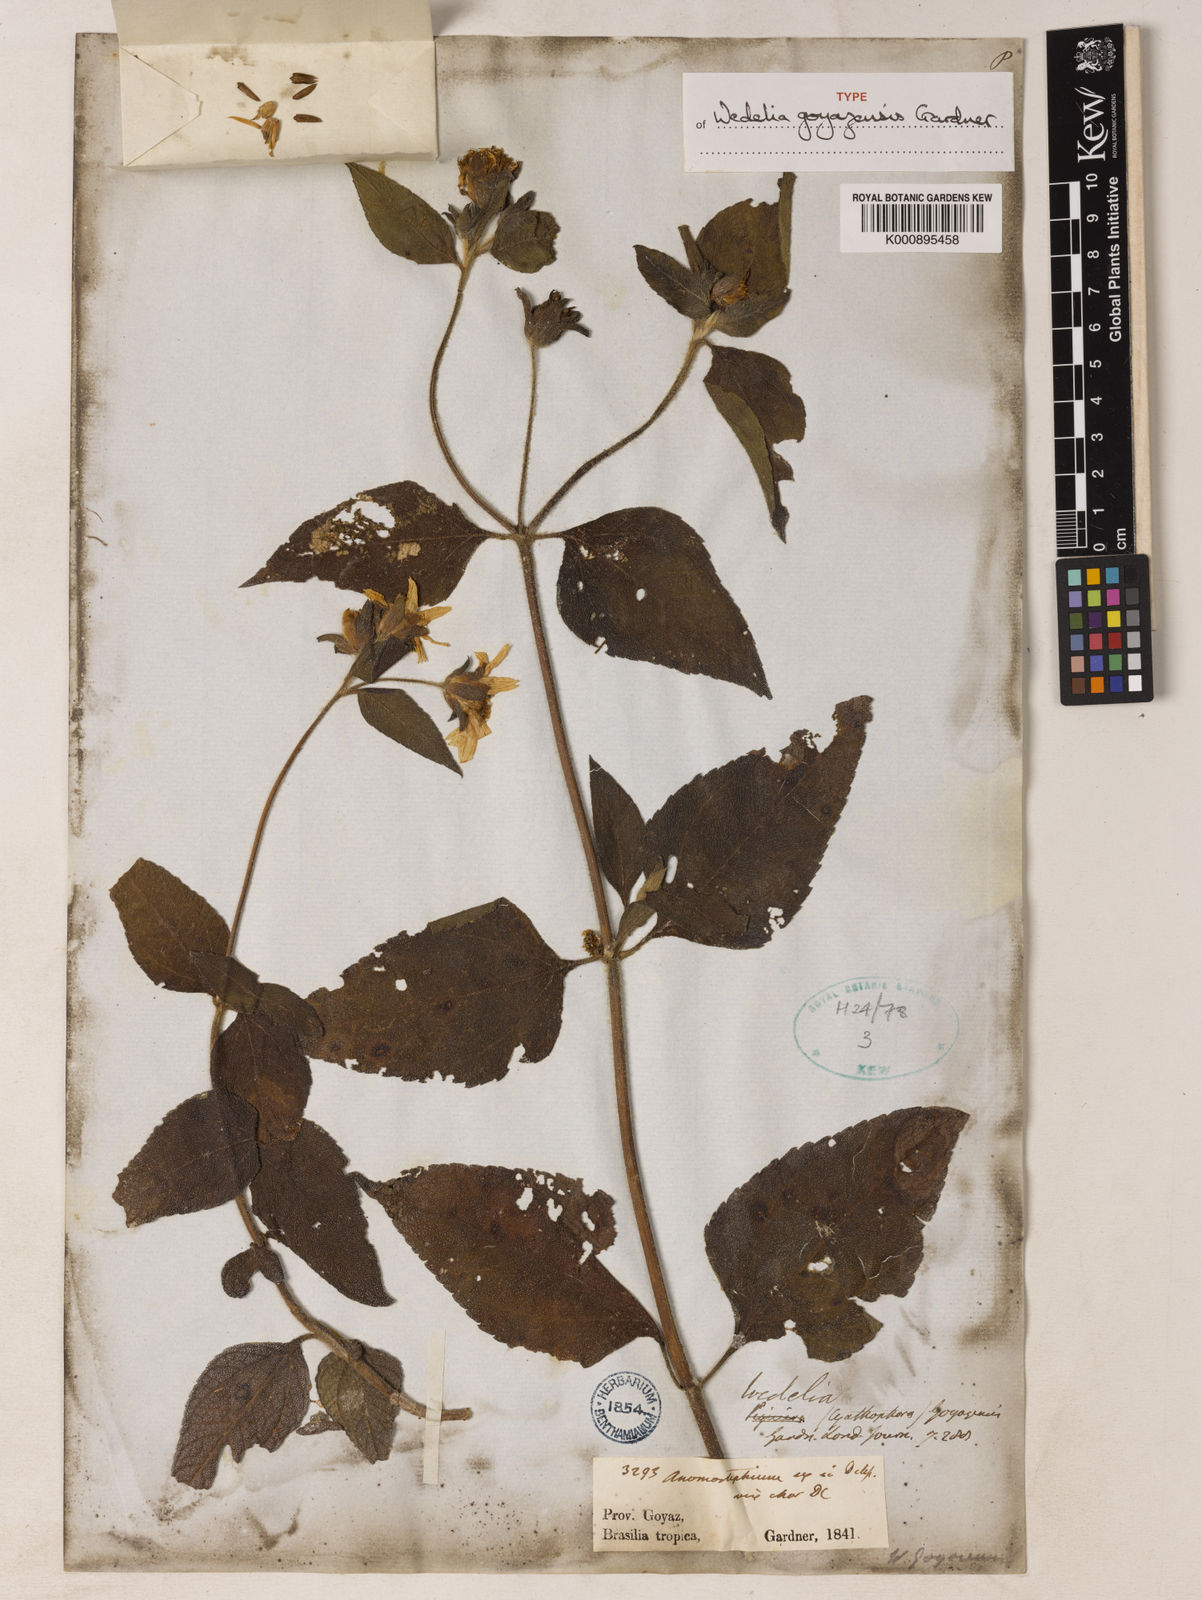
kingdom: Plantae
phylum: Tracheophyta
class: Magnoliopsida
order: Asterales
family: Asteraceae
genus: Wedelia
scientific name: Wedelia goyazensis
